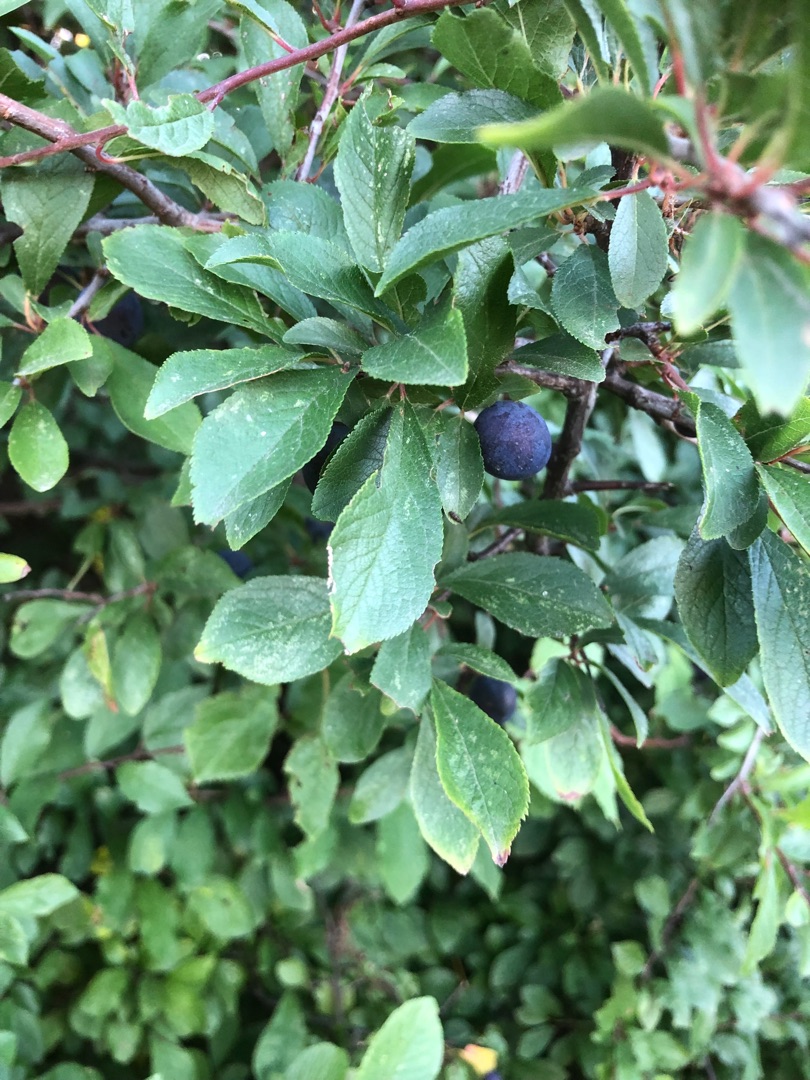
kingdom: Plantae
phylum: Tracheophyta
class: Magnoliopsida
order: Rosales
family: Rosaceae
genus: Prunus
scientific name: Prunus domestica
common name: Kræge
